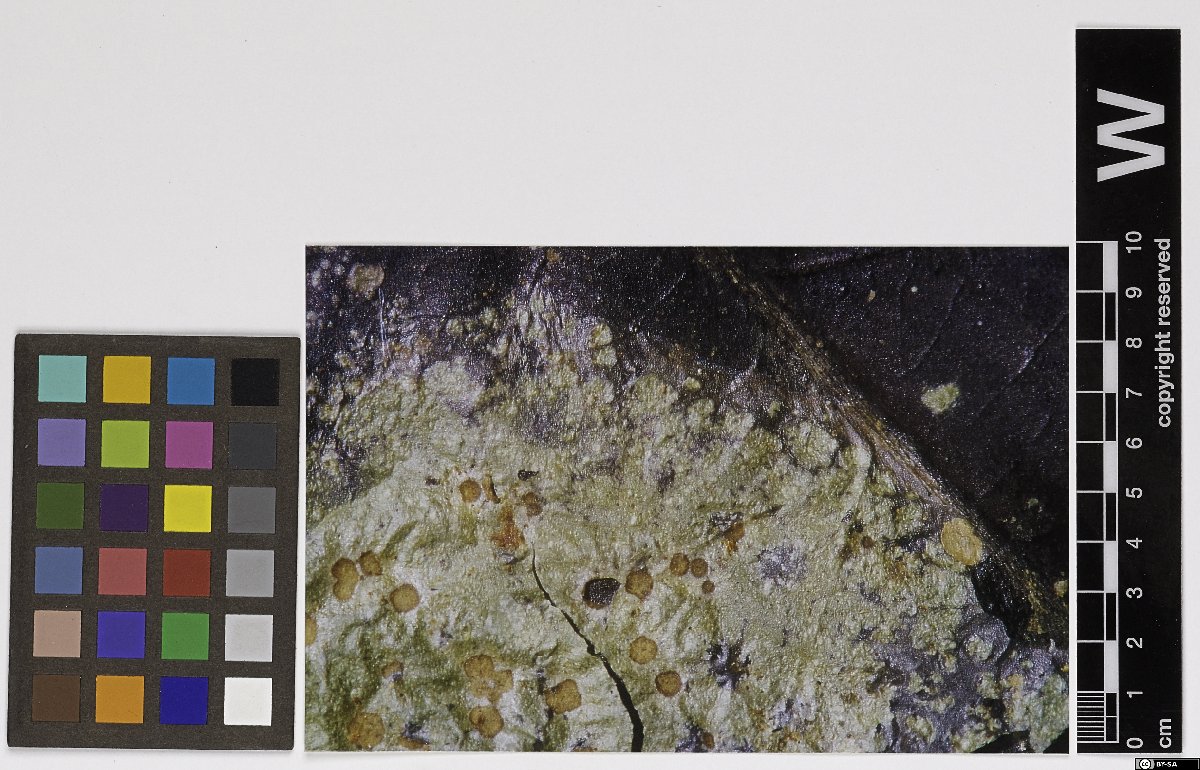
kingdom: Fungi
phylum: Ascomycota
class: Lecanoromycetes
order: Lecanorales
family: Ectolechiaceae
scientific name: Ectolechiaceae
